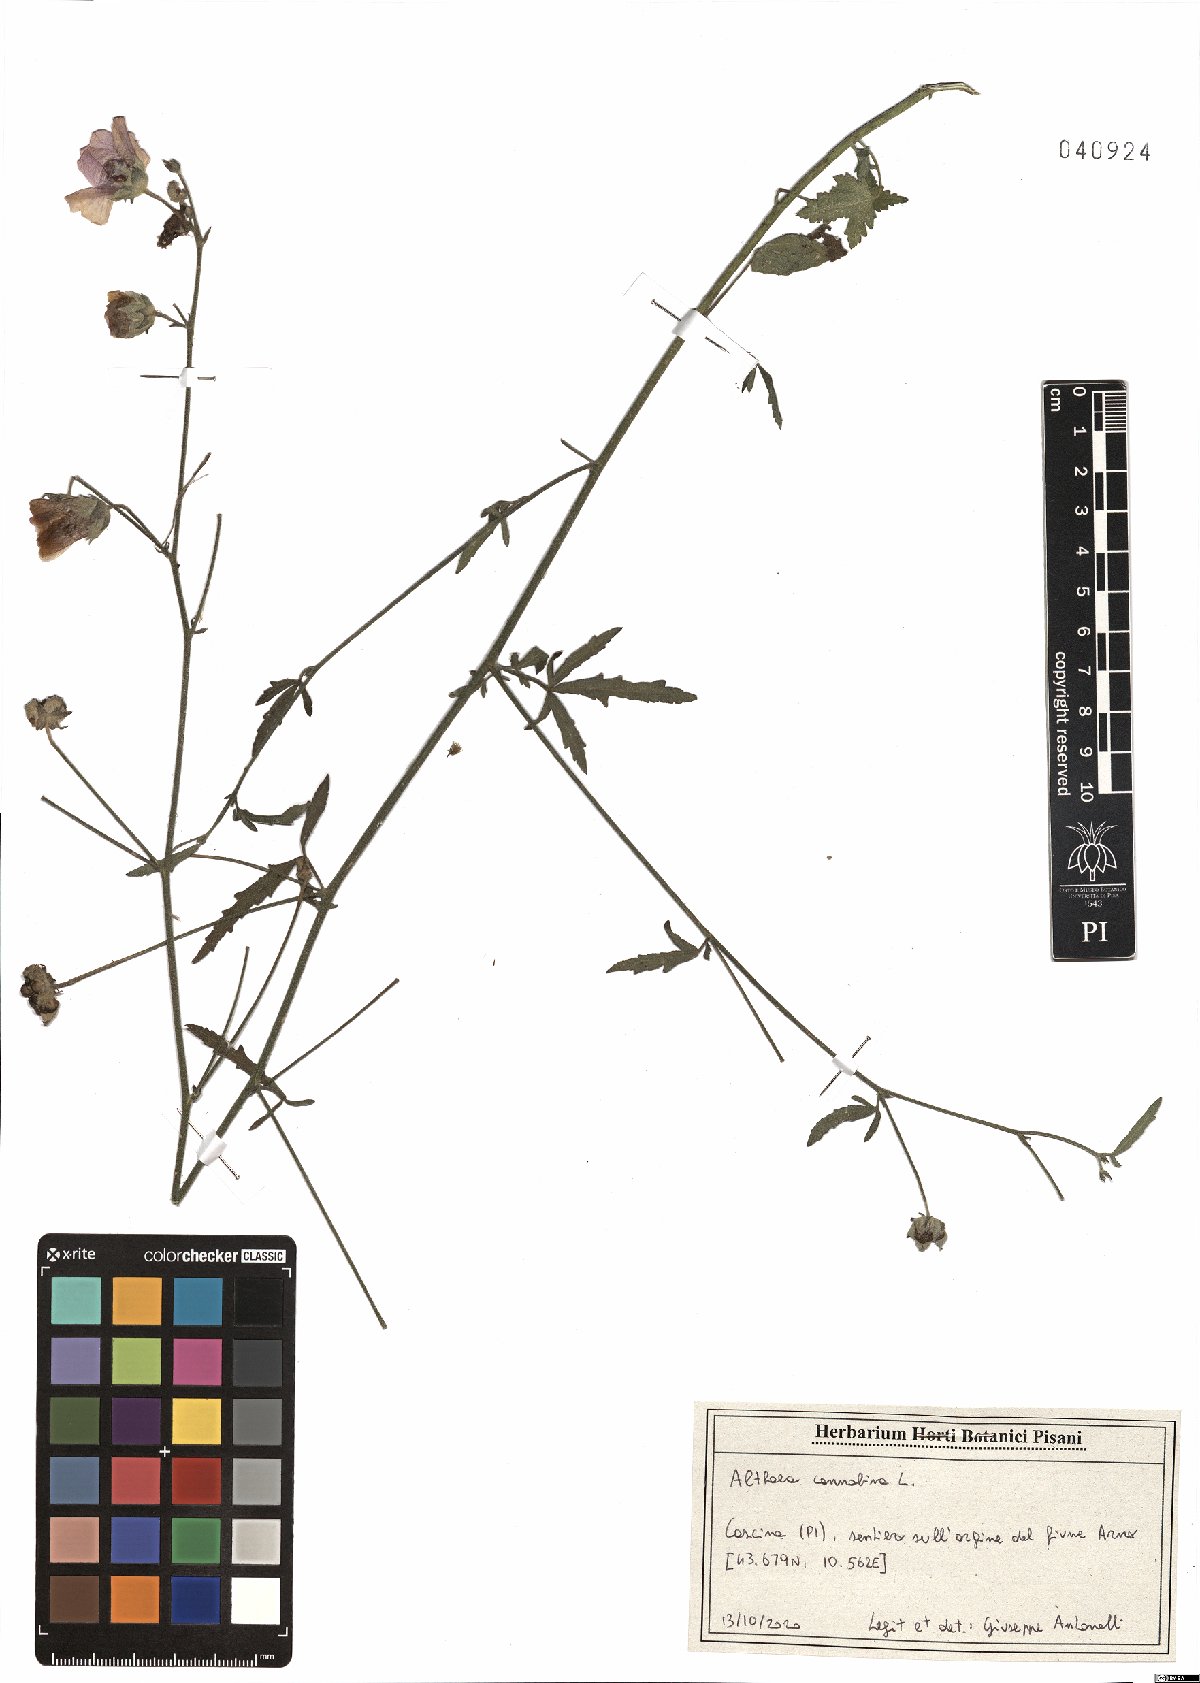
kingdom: Plantae
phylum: Tracheophyta
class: Magnoliopsida
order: Malvales
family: Malvaceae
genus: Althaea
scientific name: Althaea cannabina
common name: Palm-leaf marshmallow
